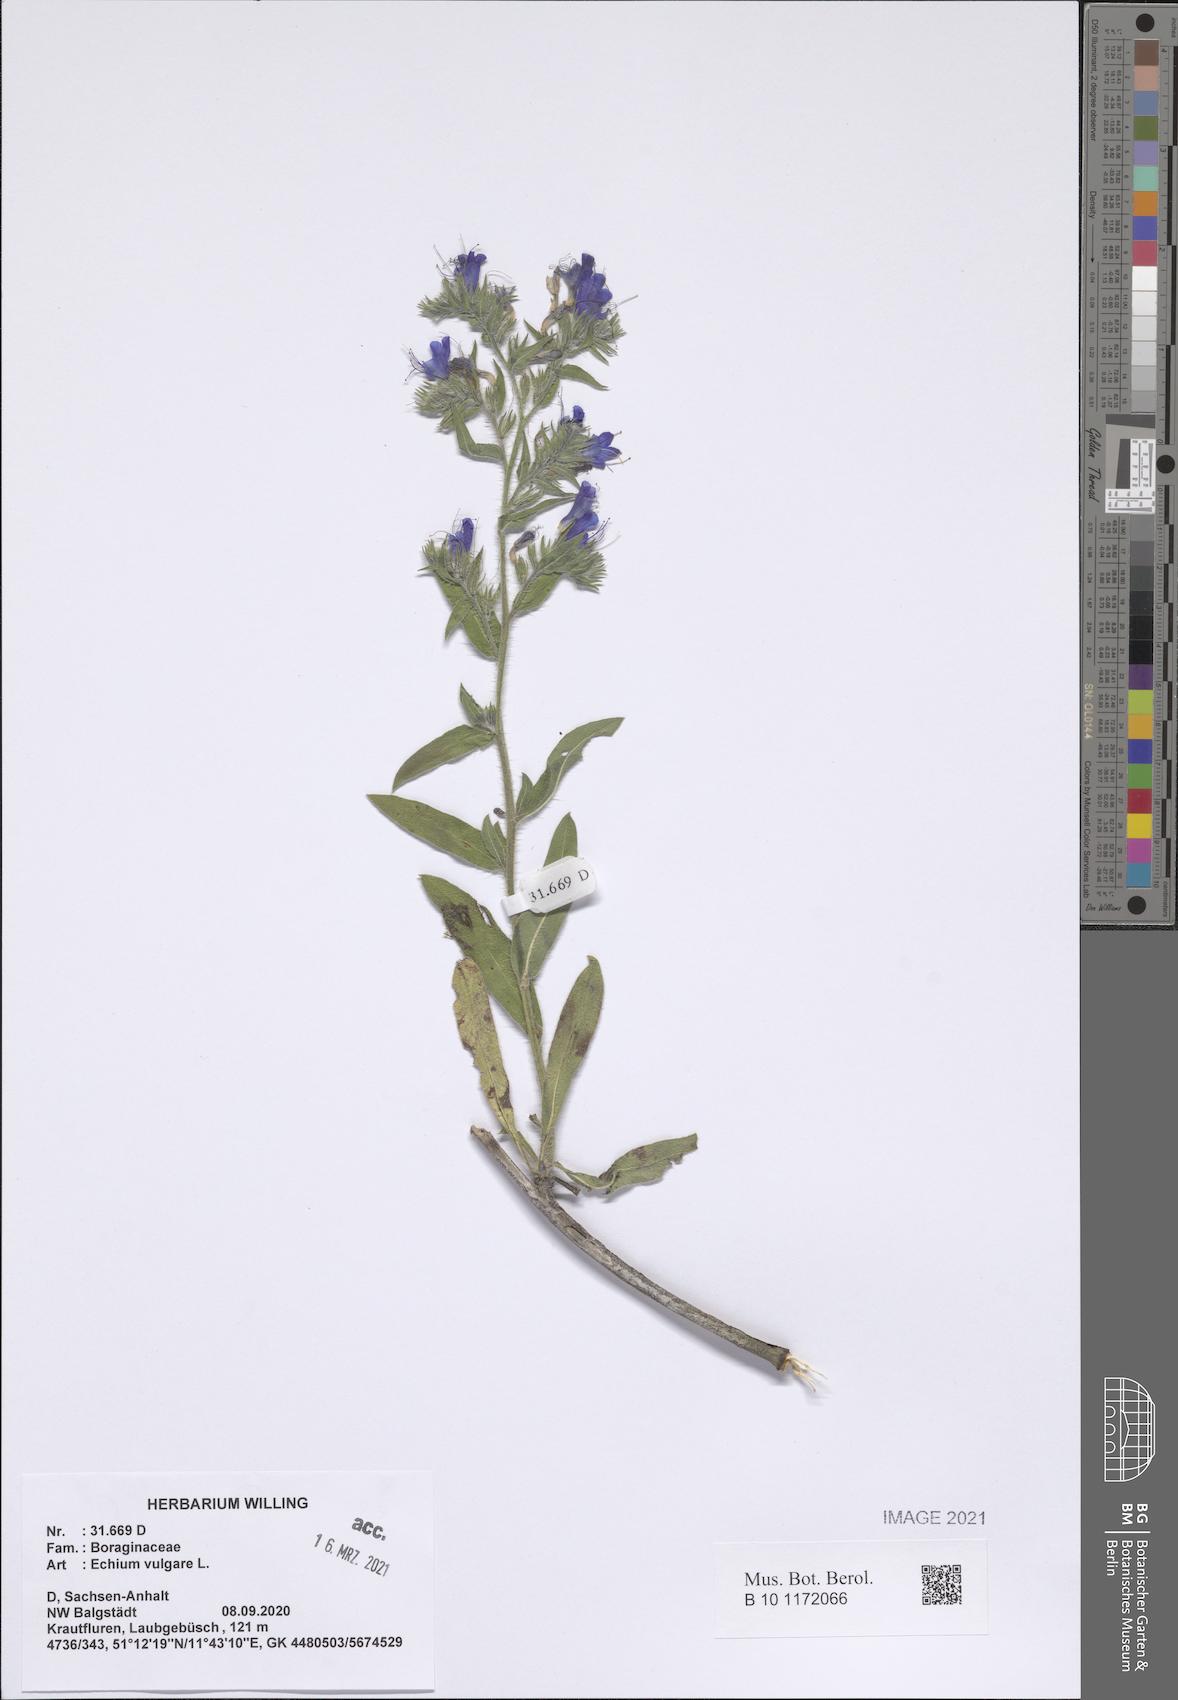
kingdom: Plantae
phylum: Tracheophyta
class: Magnoliopsida
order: Boraginales
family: Boraginaceae
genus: Echium
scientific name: Echium vulgare
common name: Common viper's bugloss
